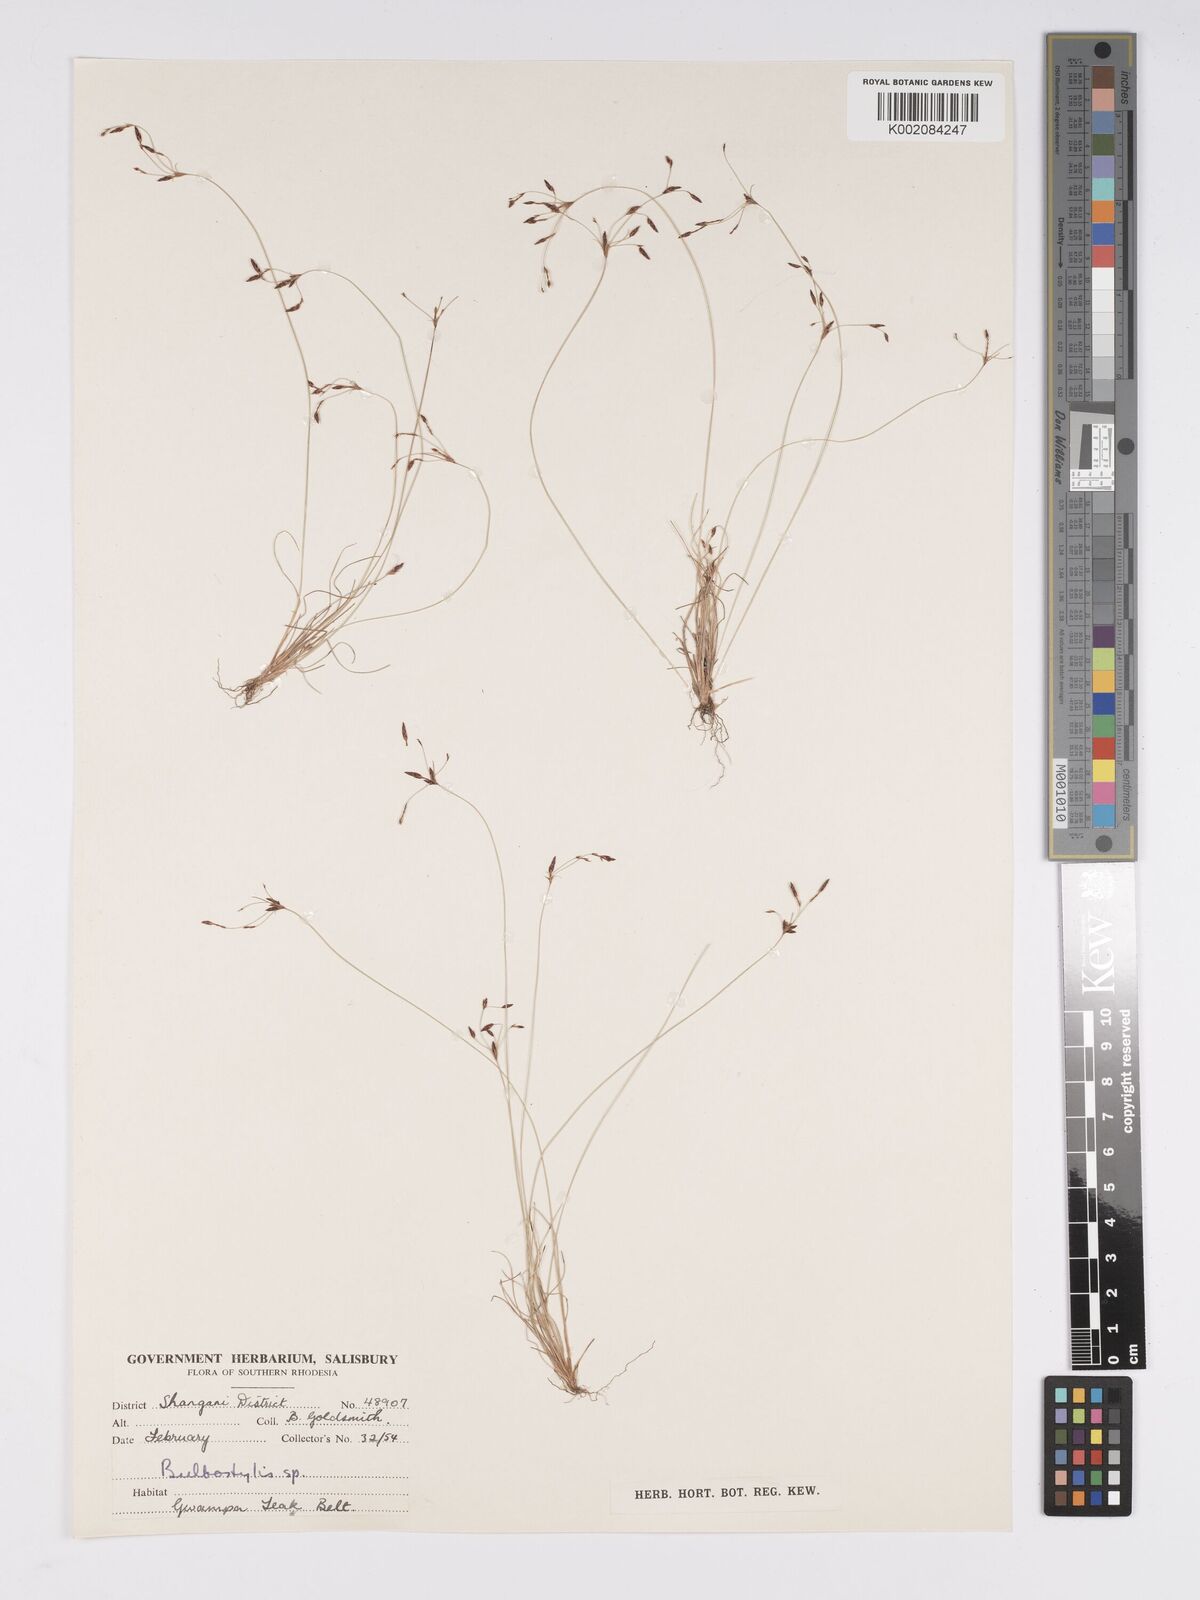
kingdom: Plantae
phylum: Tracheophyta
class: Liliopsida
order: Poales
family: Cyperaceae
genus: Bulbostylis
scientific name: Bulbostylis
